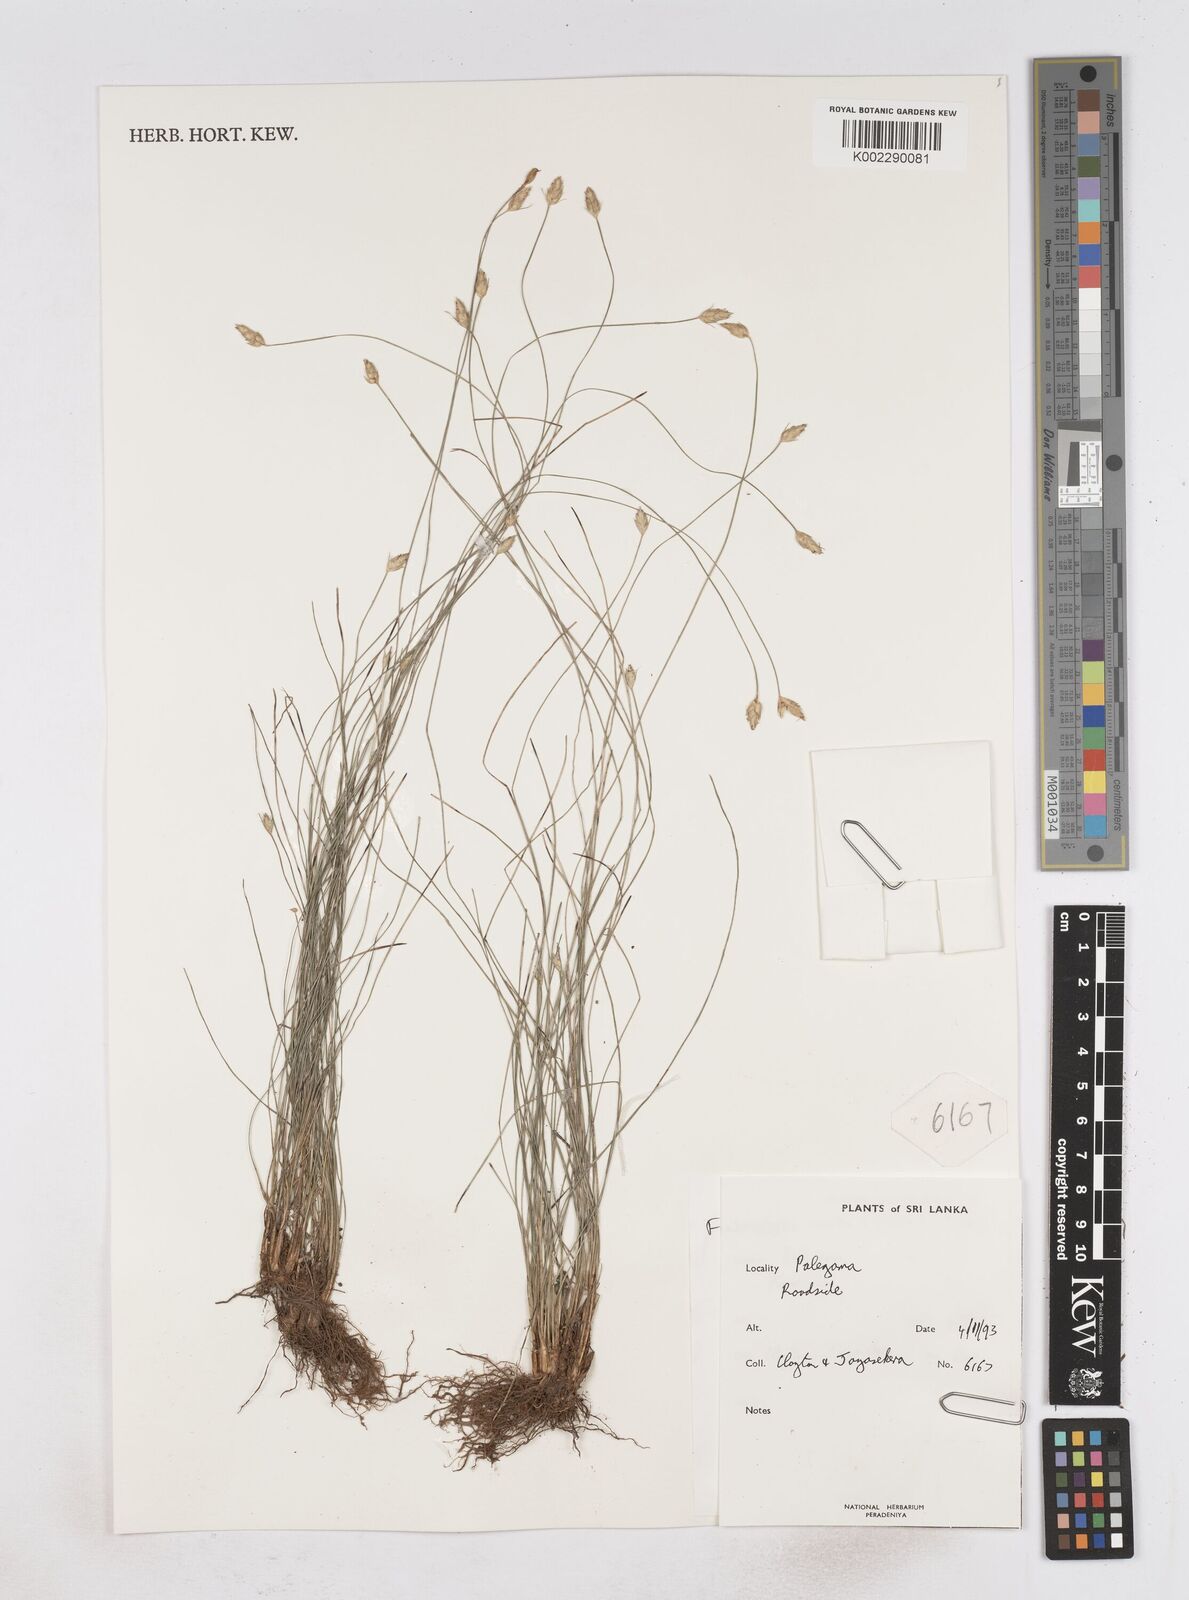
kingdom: Plantae
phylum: Tracheophyta
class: Liliopsida
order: Poales
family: Cyperaceae
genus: Abildgaardia
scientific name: Abildgaardia ovata
